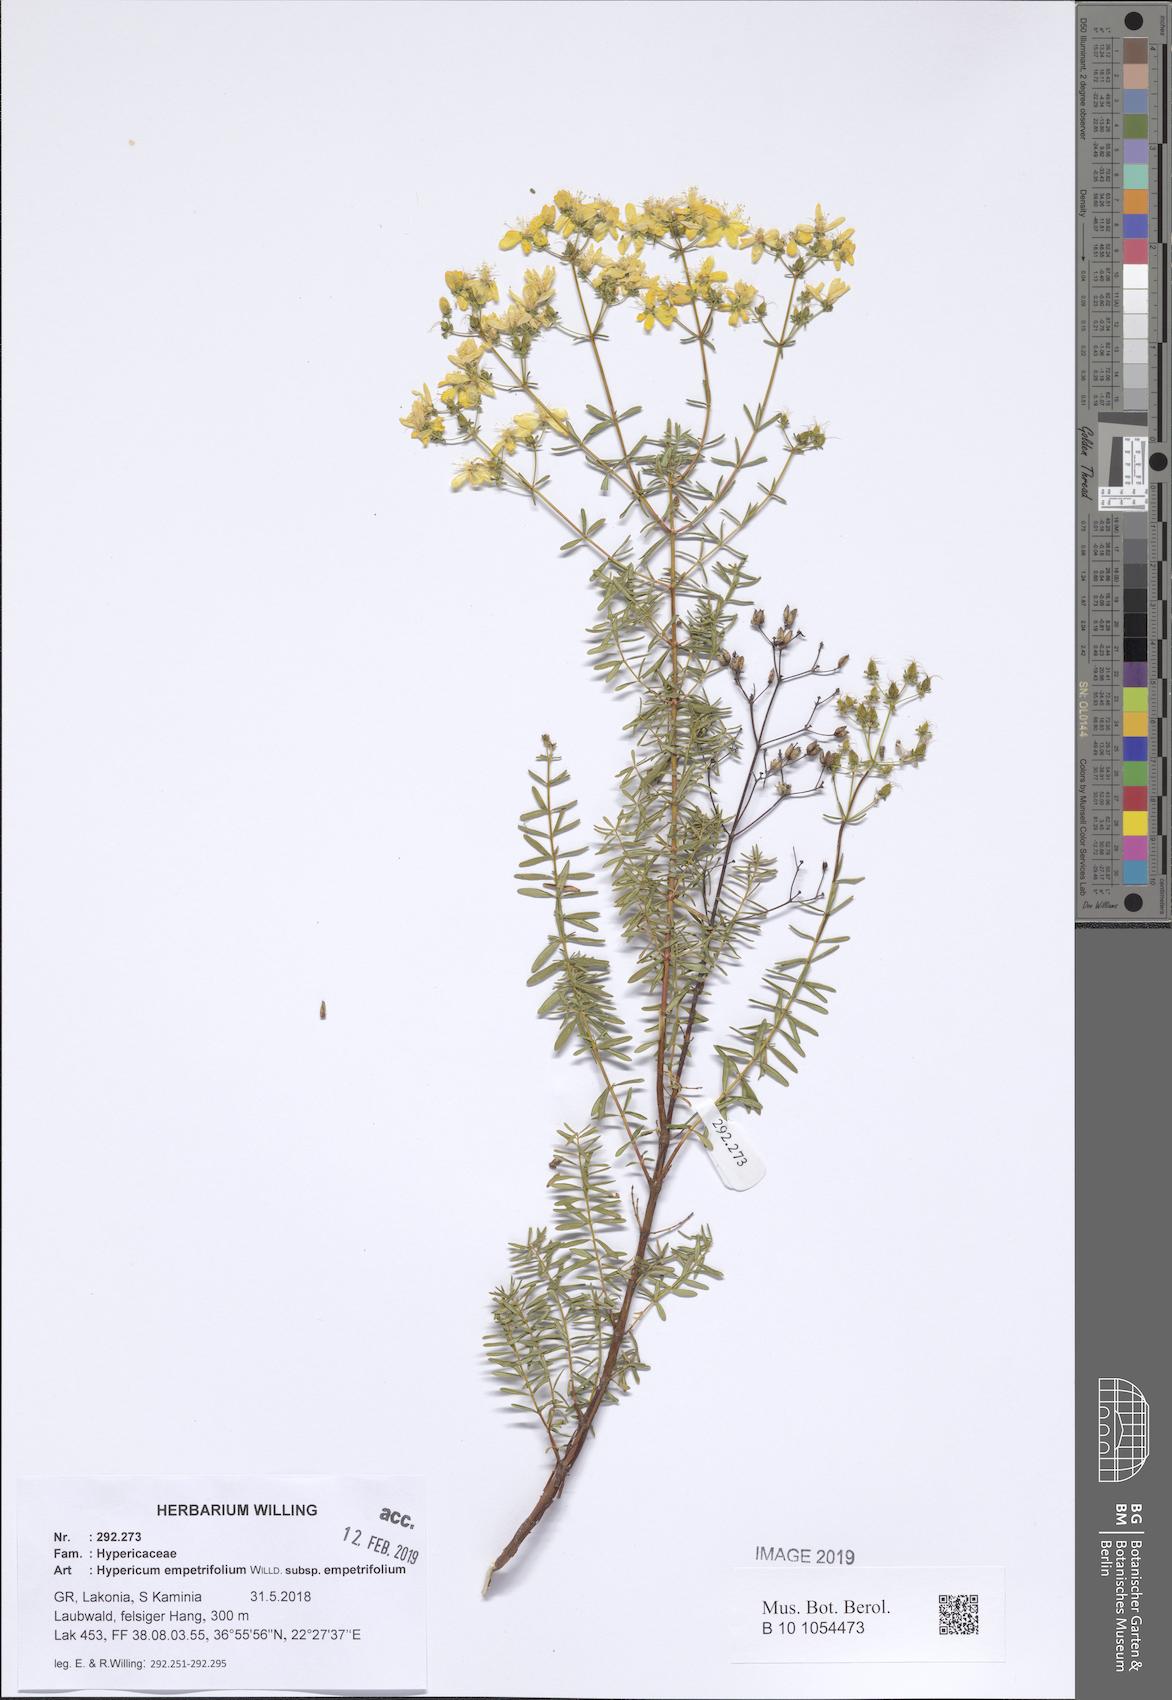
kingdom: Plantae
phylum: Tracheophyta
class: Magnoliopsida
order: Malpighiales
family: Hypericaceae
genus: Hypericum
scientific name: Hypericum empetrifolium
